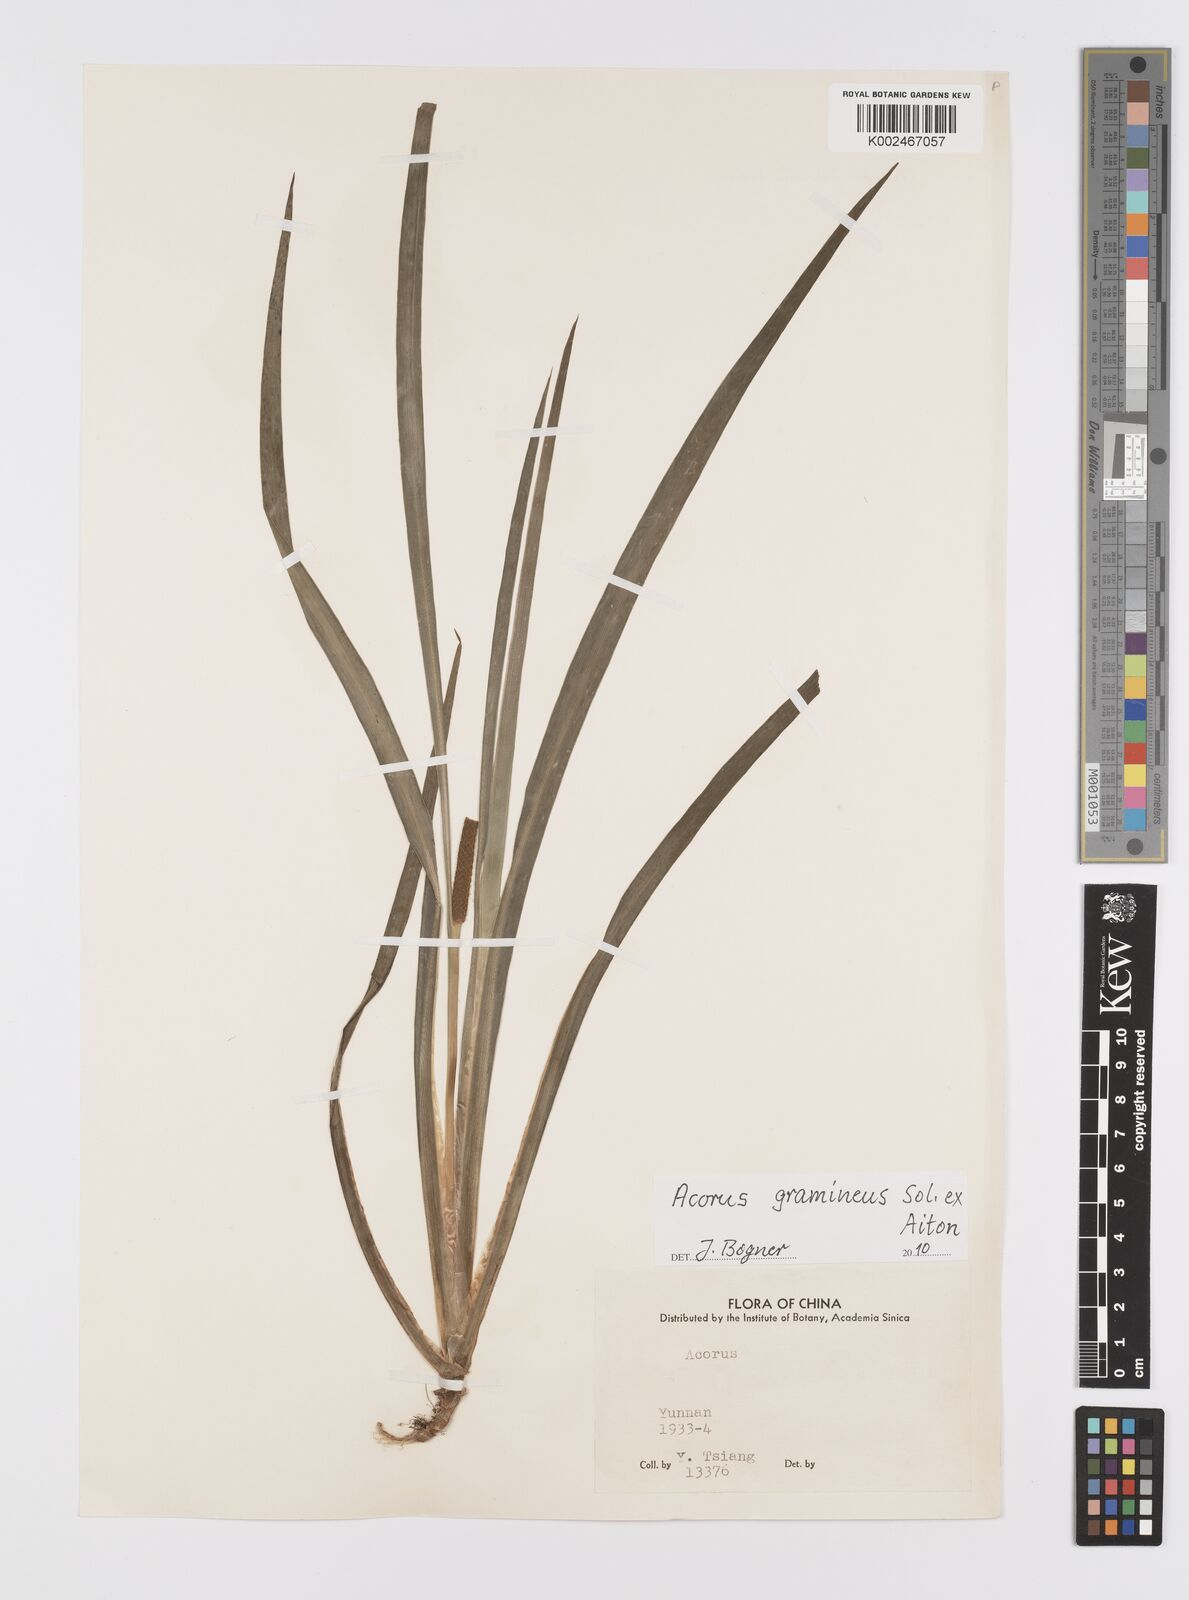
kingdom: Plantae
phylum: Tracheophyta
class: Liliopsida
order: Acorales
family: Acoraceae
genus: Acorus
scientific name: Acorus gramineus
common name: Slender sweet-flag
